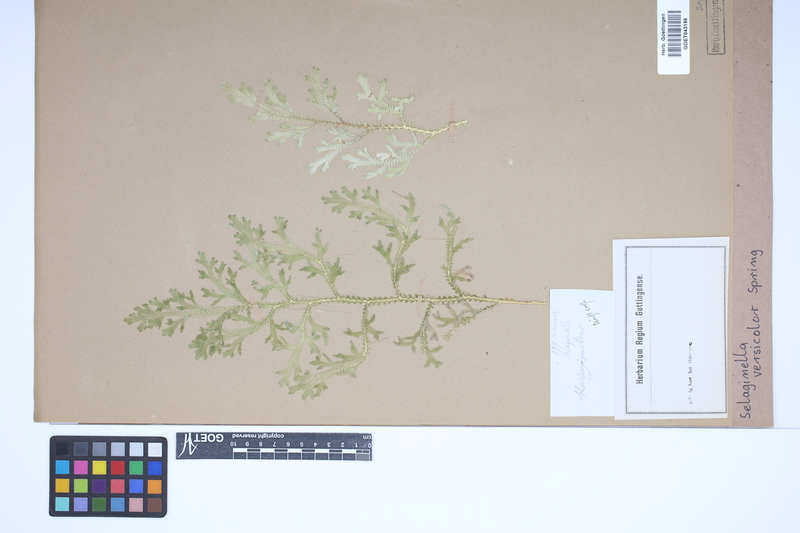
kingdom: Plantae
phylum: Tracheophyta
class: Lycopodiopsida
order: Selaginellales
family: Selaginellaceae
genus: Selaginella
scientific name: Selaginella versicolor
